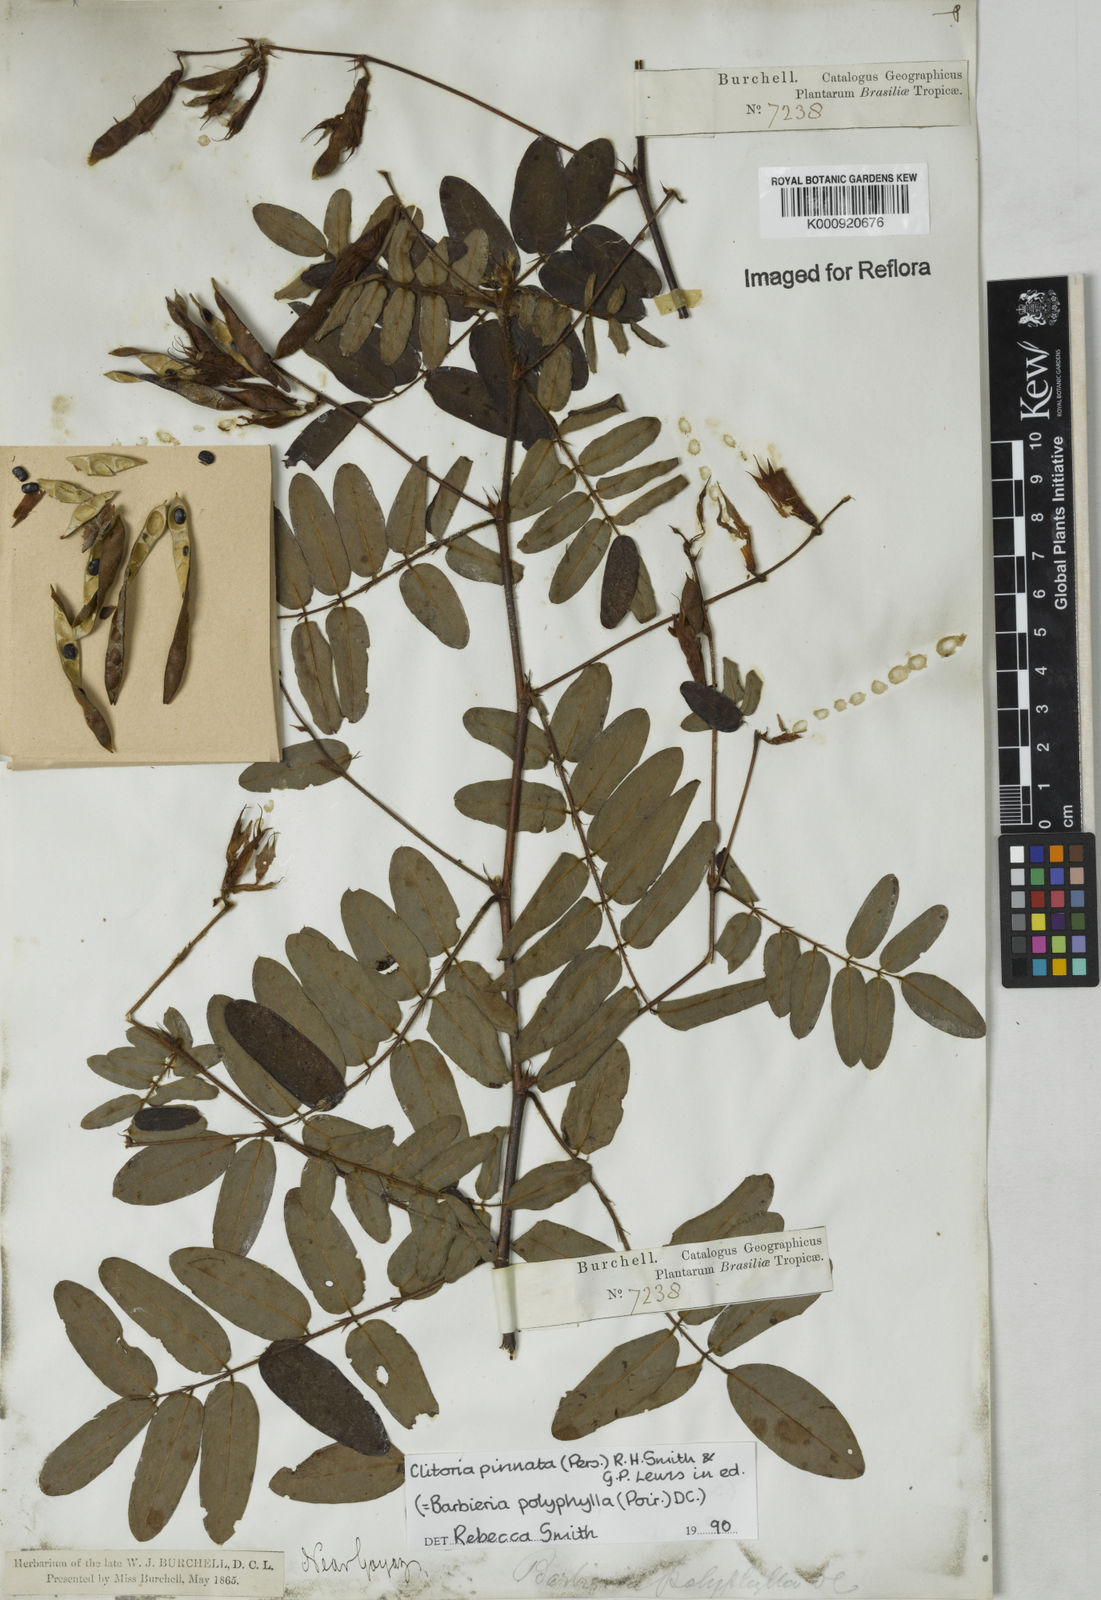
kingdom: Plantae
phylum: Tracheophyta
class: Magnoliopsida
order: Fabales
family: Fabaceae
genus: Barbieria
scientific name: Barbieria pinnata
